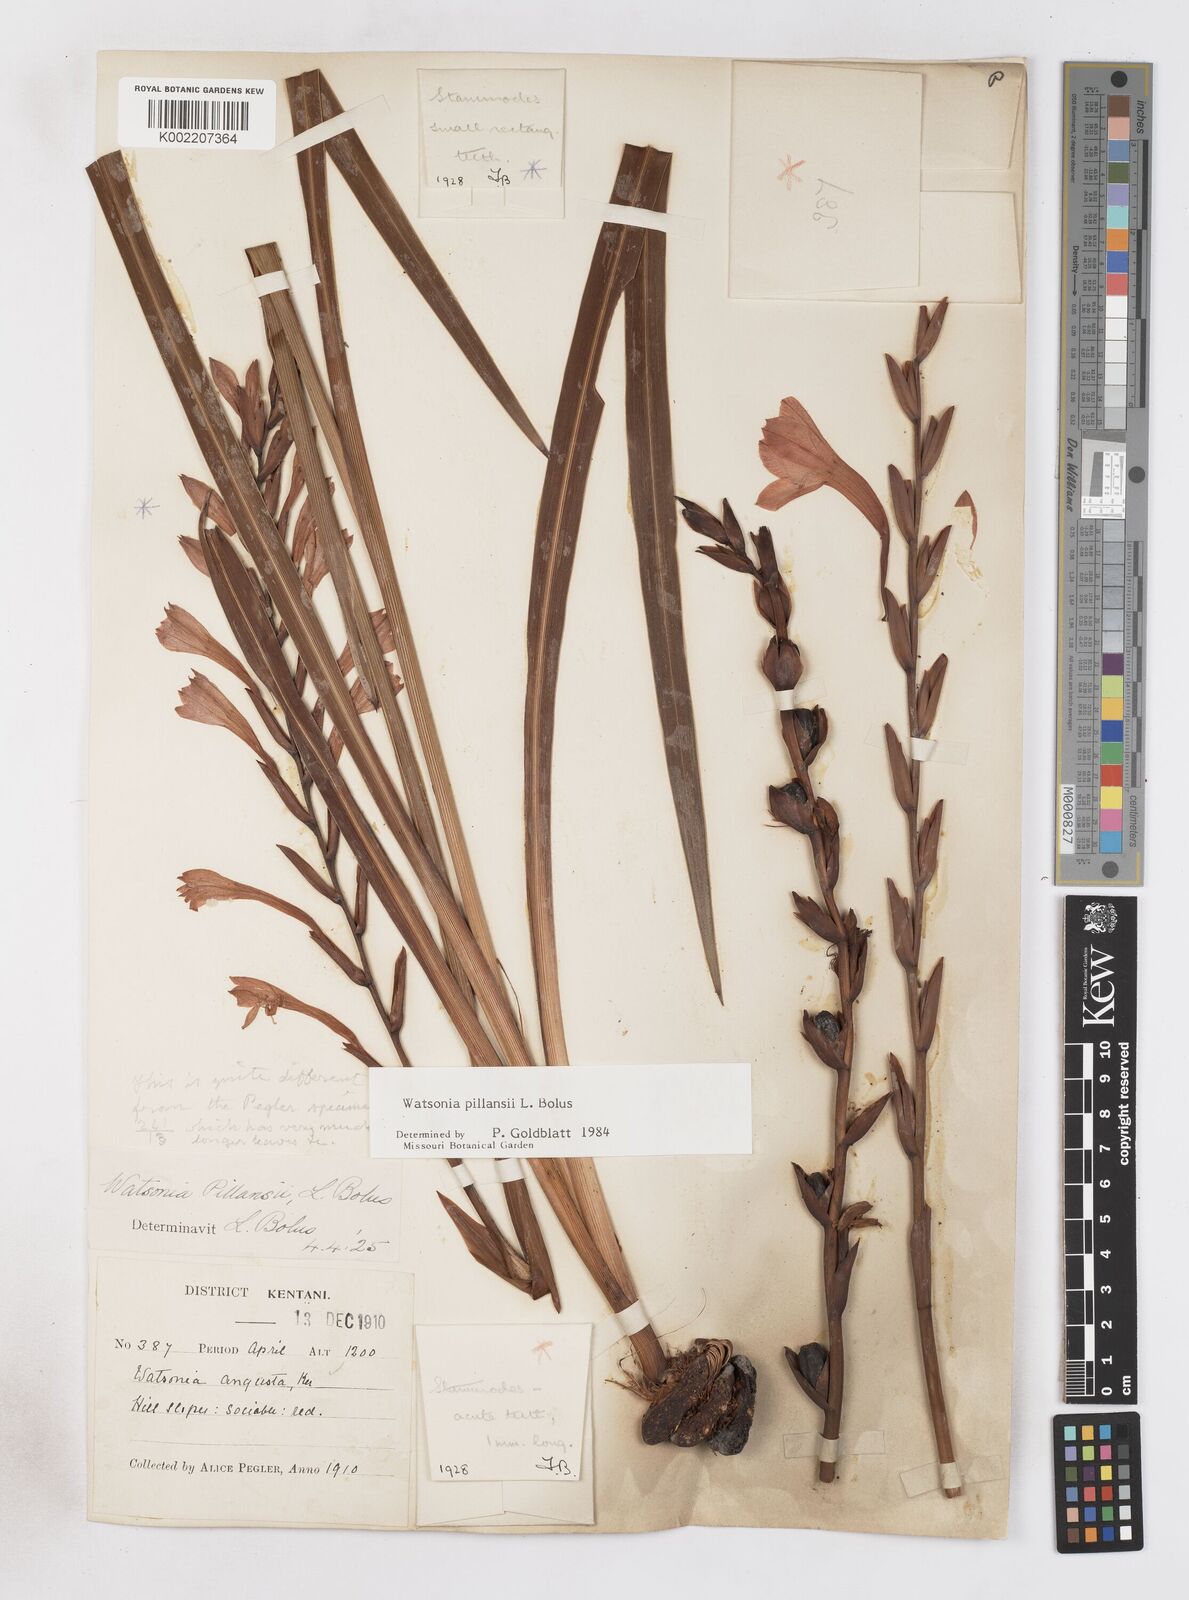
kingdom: Plantae
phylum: Tracheophyta
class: Liliopsida
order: Asparagales
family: Iridaceae
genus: Watsonia
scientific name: Watsonia pillansii
